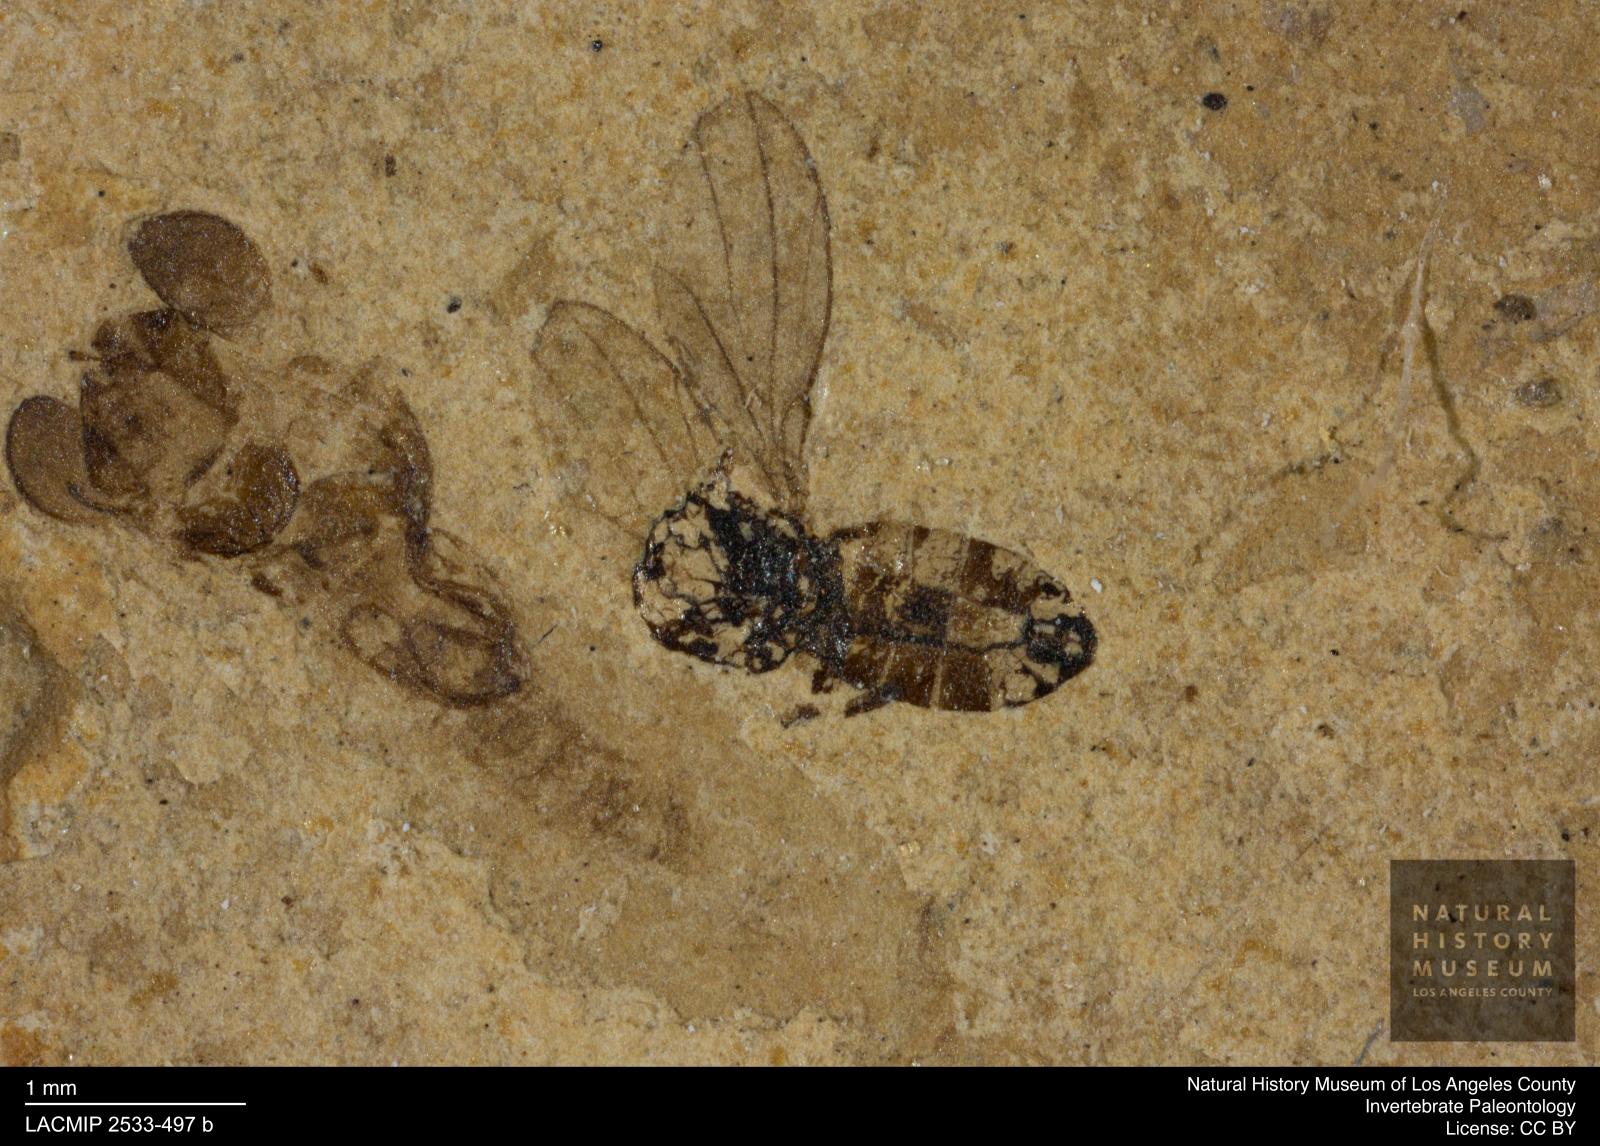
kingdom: Animalia
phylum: Arthropoda
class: Insecta
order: Diptera
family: Drosophilidae
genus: Drosophila
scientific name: Drosophila elegans
